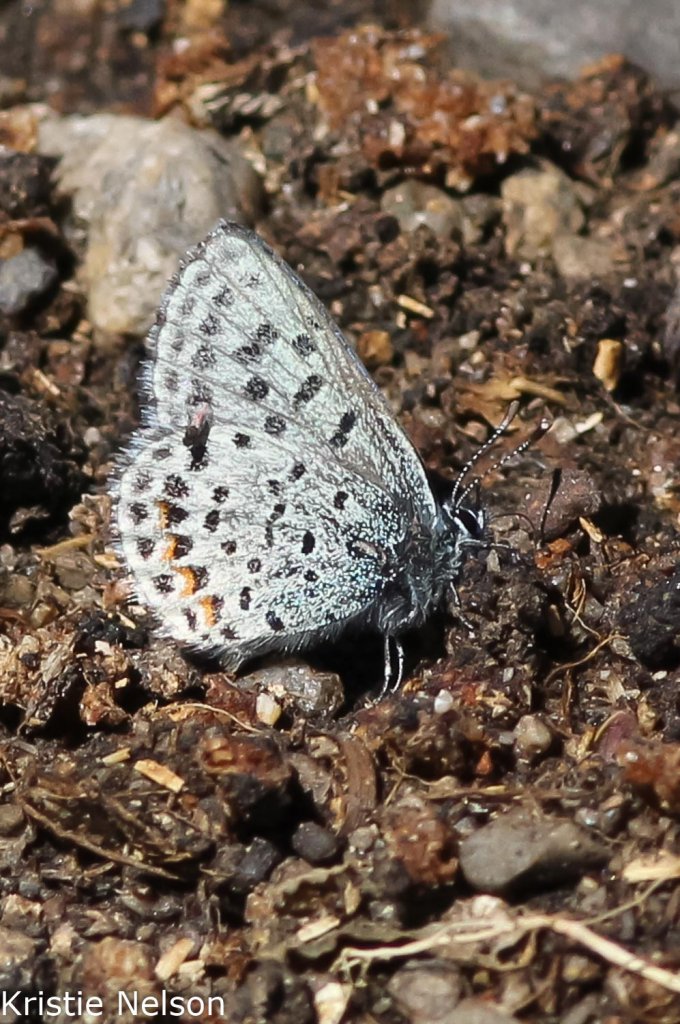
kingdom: Animalia
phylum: Arthropoda
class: Insecta
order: Lepidoptera
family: Lycaenidae
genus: Euphilotes
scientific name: Euphilotes
